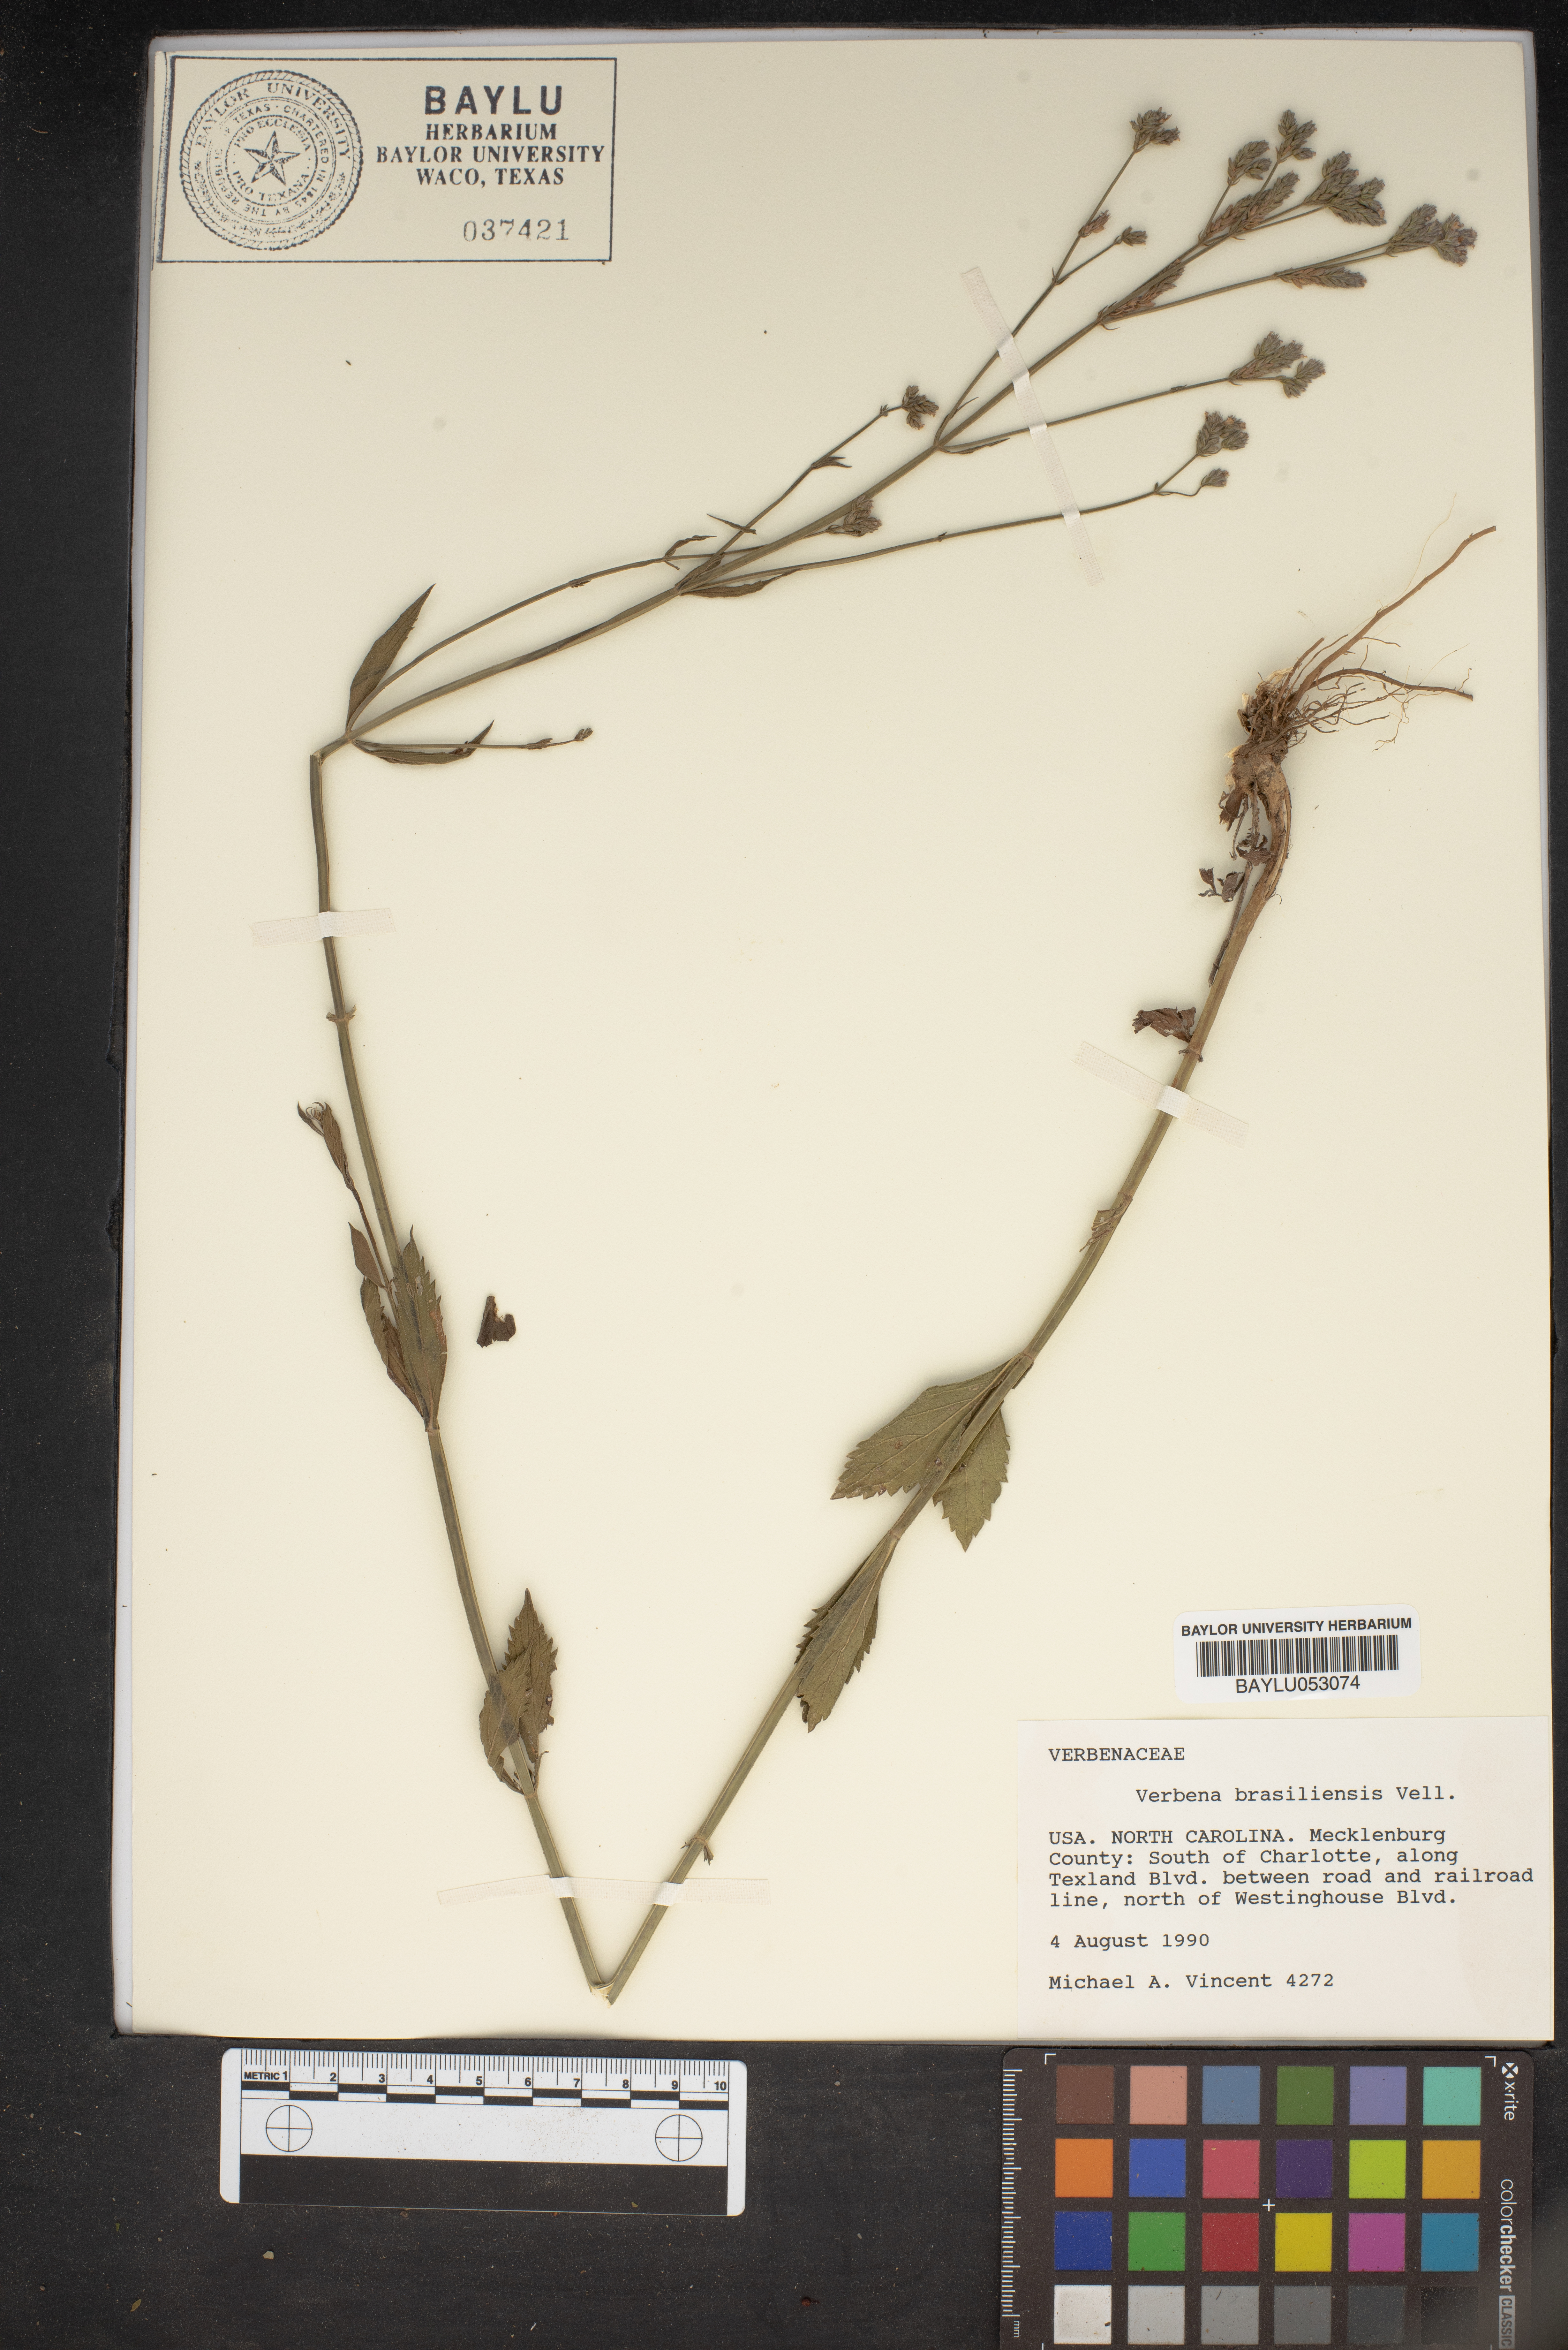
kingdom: Plantae
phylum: Tracheophyta
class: Magnoliopsida
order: Lamiales
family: Verbenaceae
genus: Verbena
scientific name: Verbena brasiliensis
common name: Brazilian vervain
